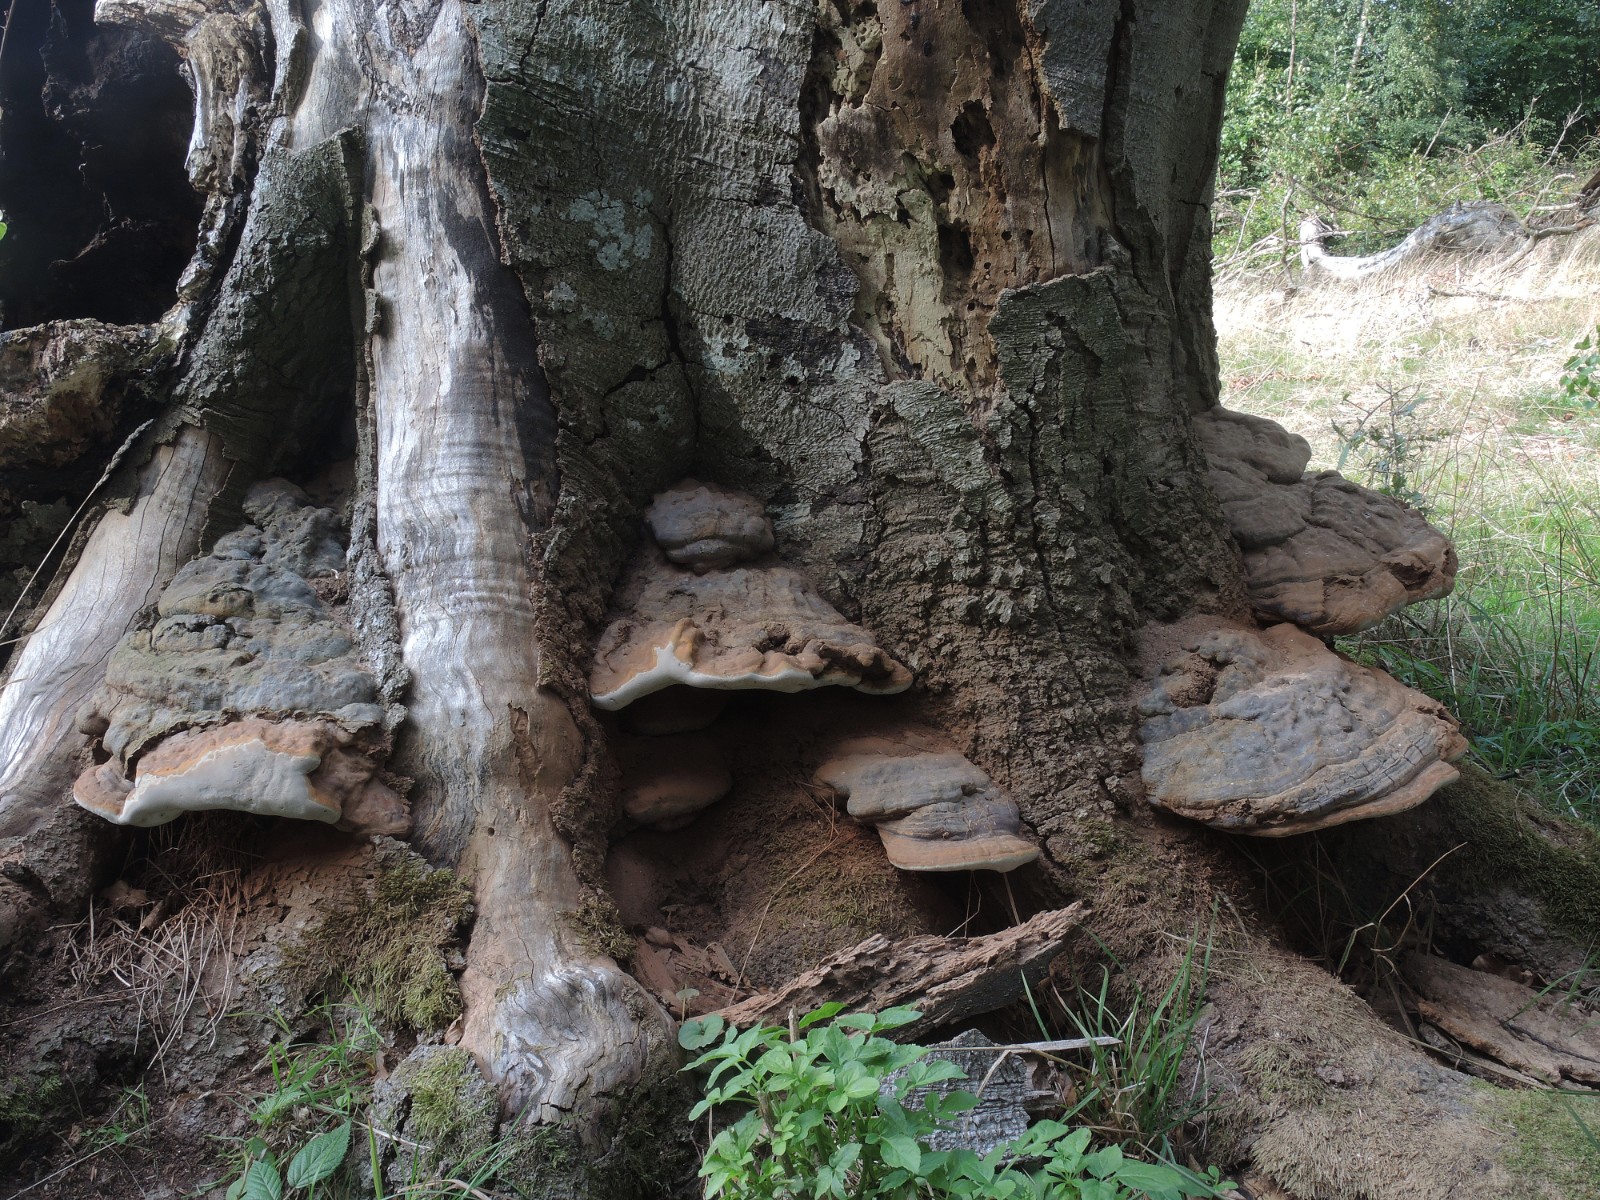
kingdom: Fungi
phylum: Basidiomycota
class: Agaricomycetes
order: Polyporales
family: Polyporaceae
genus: Ganoderma
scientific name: Ganoderma pfeifferi
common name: kobberrød lakporesvamp
